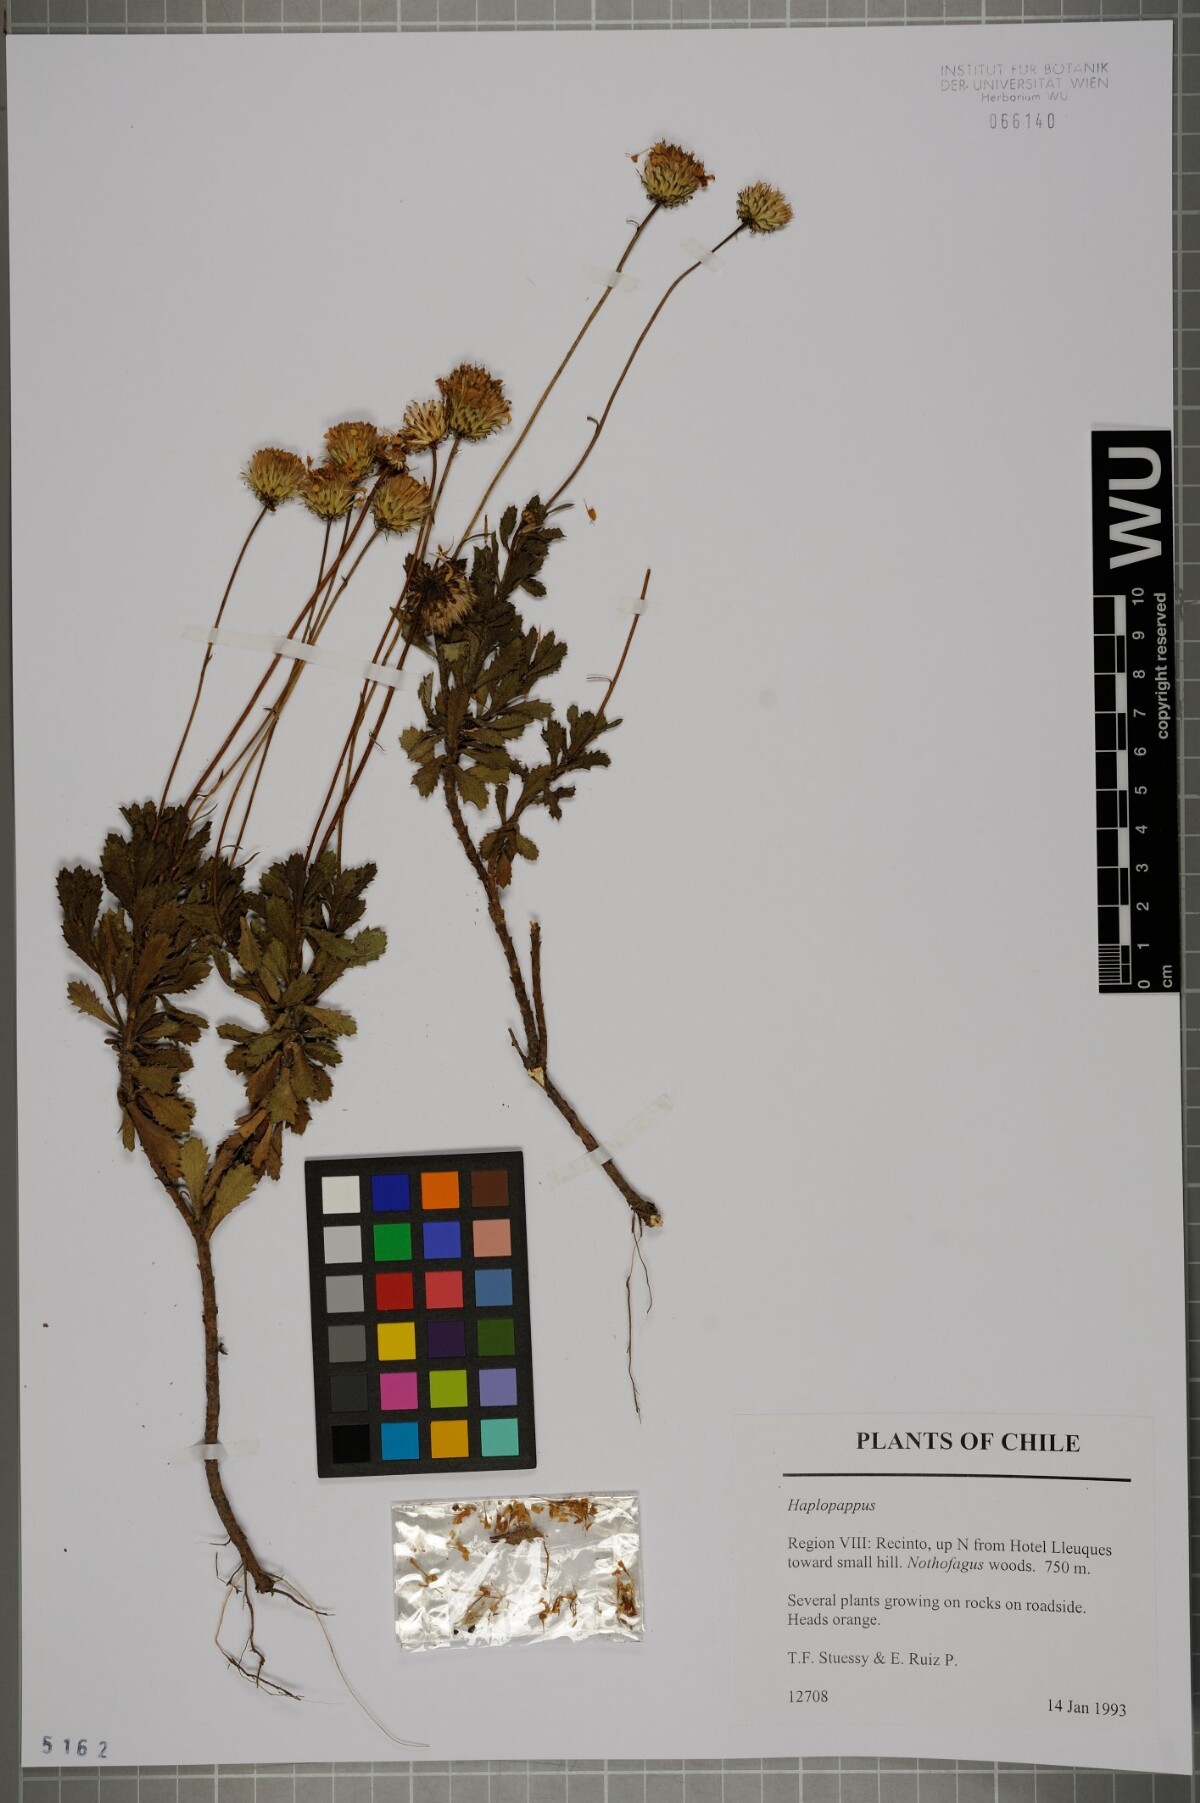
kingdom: Plantae
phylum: Tracheophyta
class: Magnoliopsida
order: Asterales
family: Asteraceae
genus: Haplopappus
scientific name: Haplopappus
